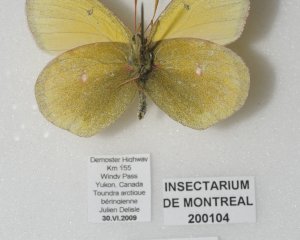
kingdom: Animalia
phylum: Arthropoda
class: Insecta
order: Lepidoptera
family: Pieridae
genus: Colias
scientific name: Colias canadensis
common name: Canadian Sulphur
